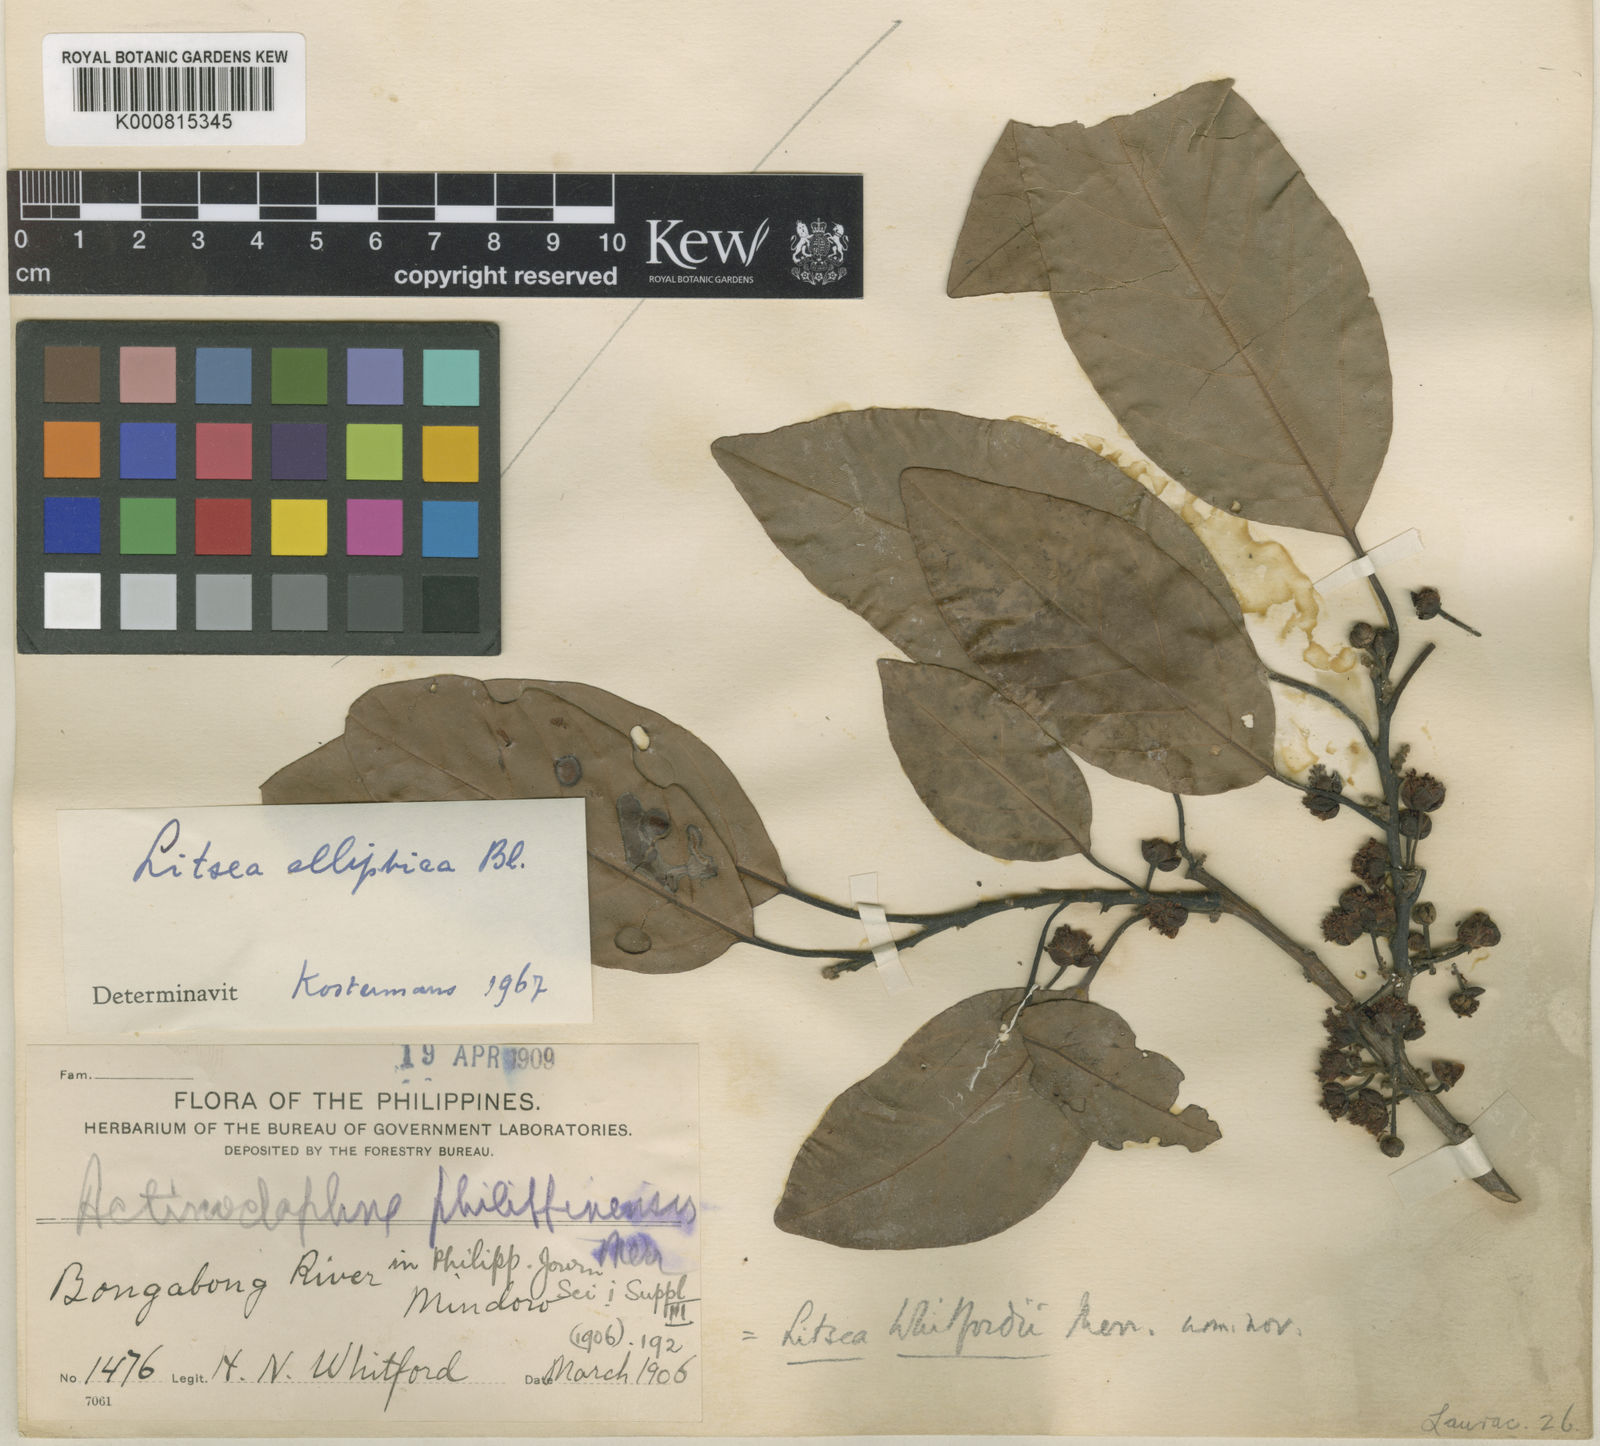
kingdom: Plantae
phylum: Tracheophyta
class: Magnoliopsida
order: Laurales
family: Lauraceae
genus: Litsea
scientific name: Litsea whitfordii
